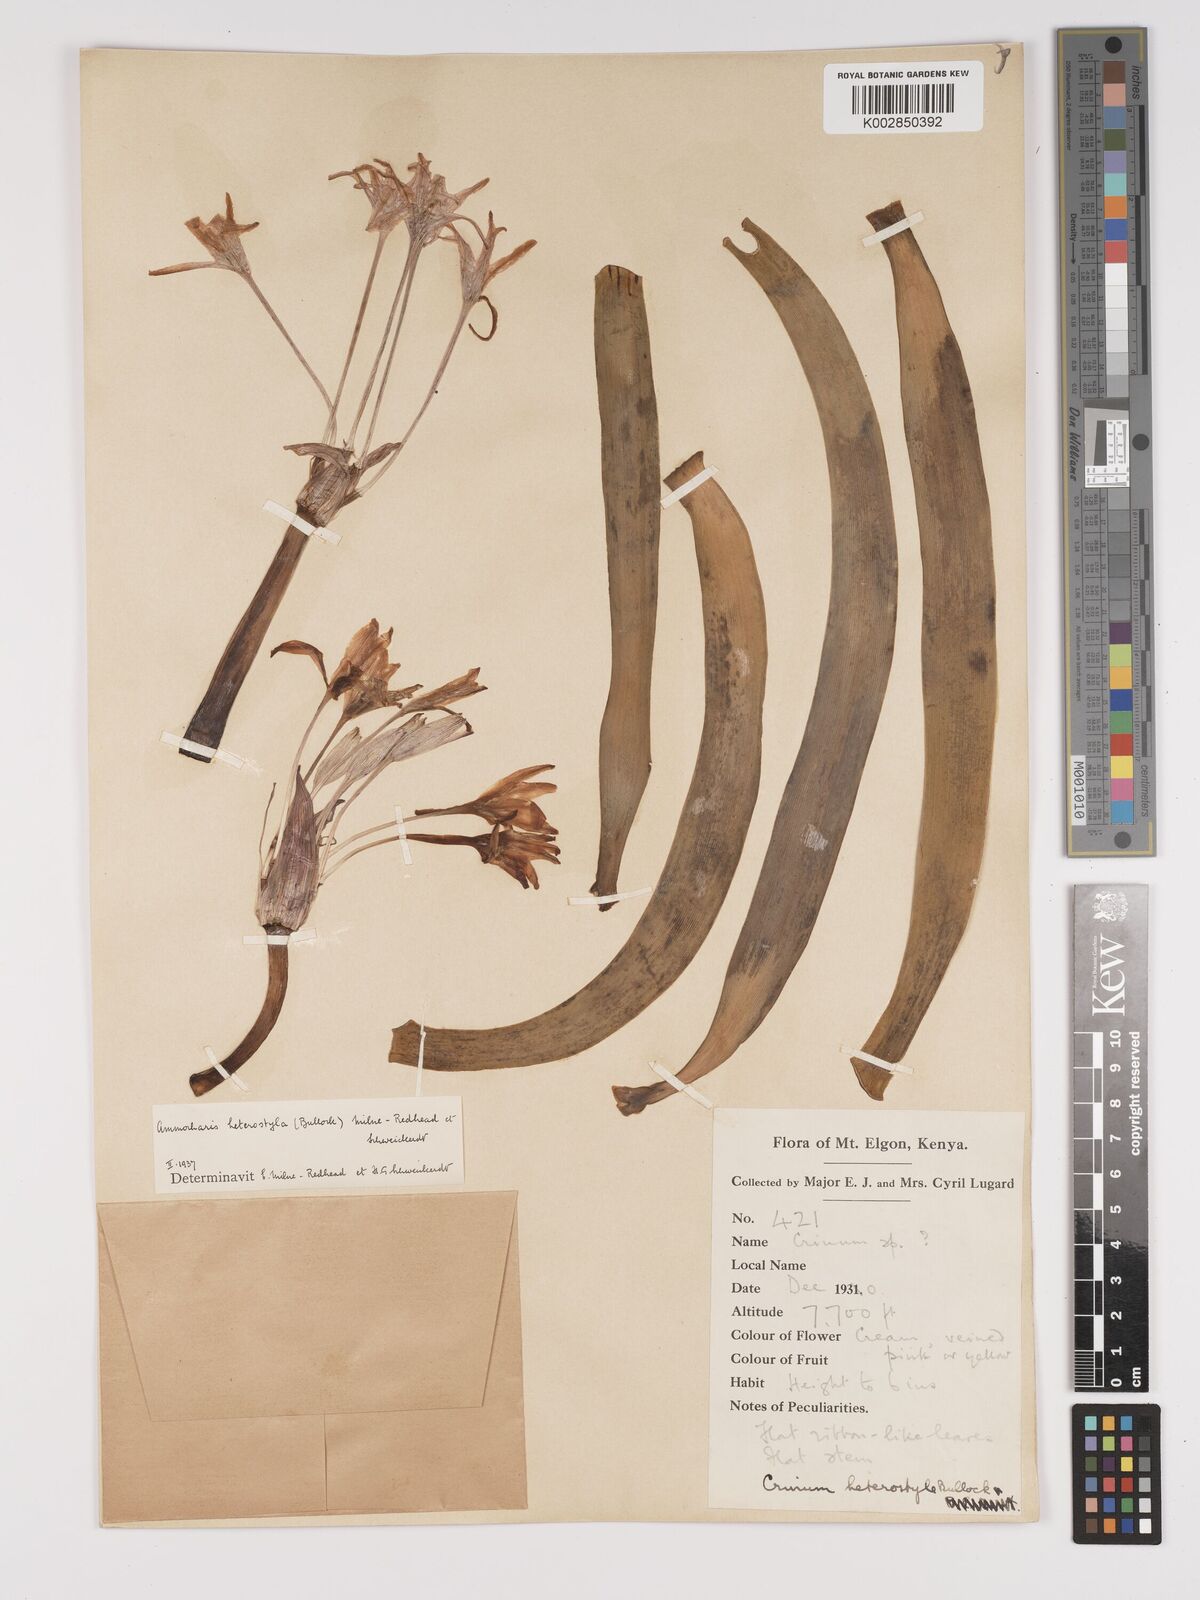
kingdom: Plantae
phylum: Tracheophyta
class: Liliopsida
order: Asparagales
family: Amaryllidaceae
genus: Ammocharis
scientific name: Ammocharis angolensis
